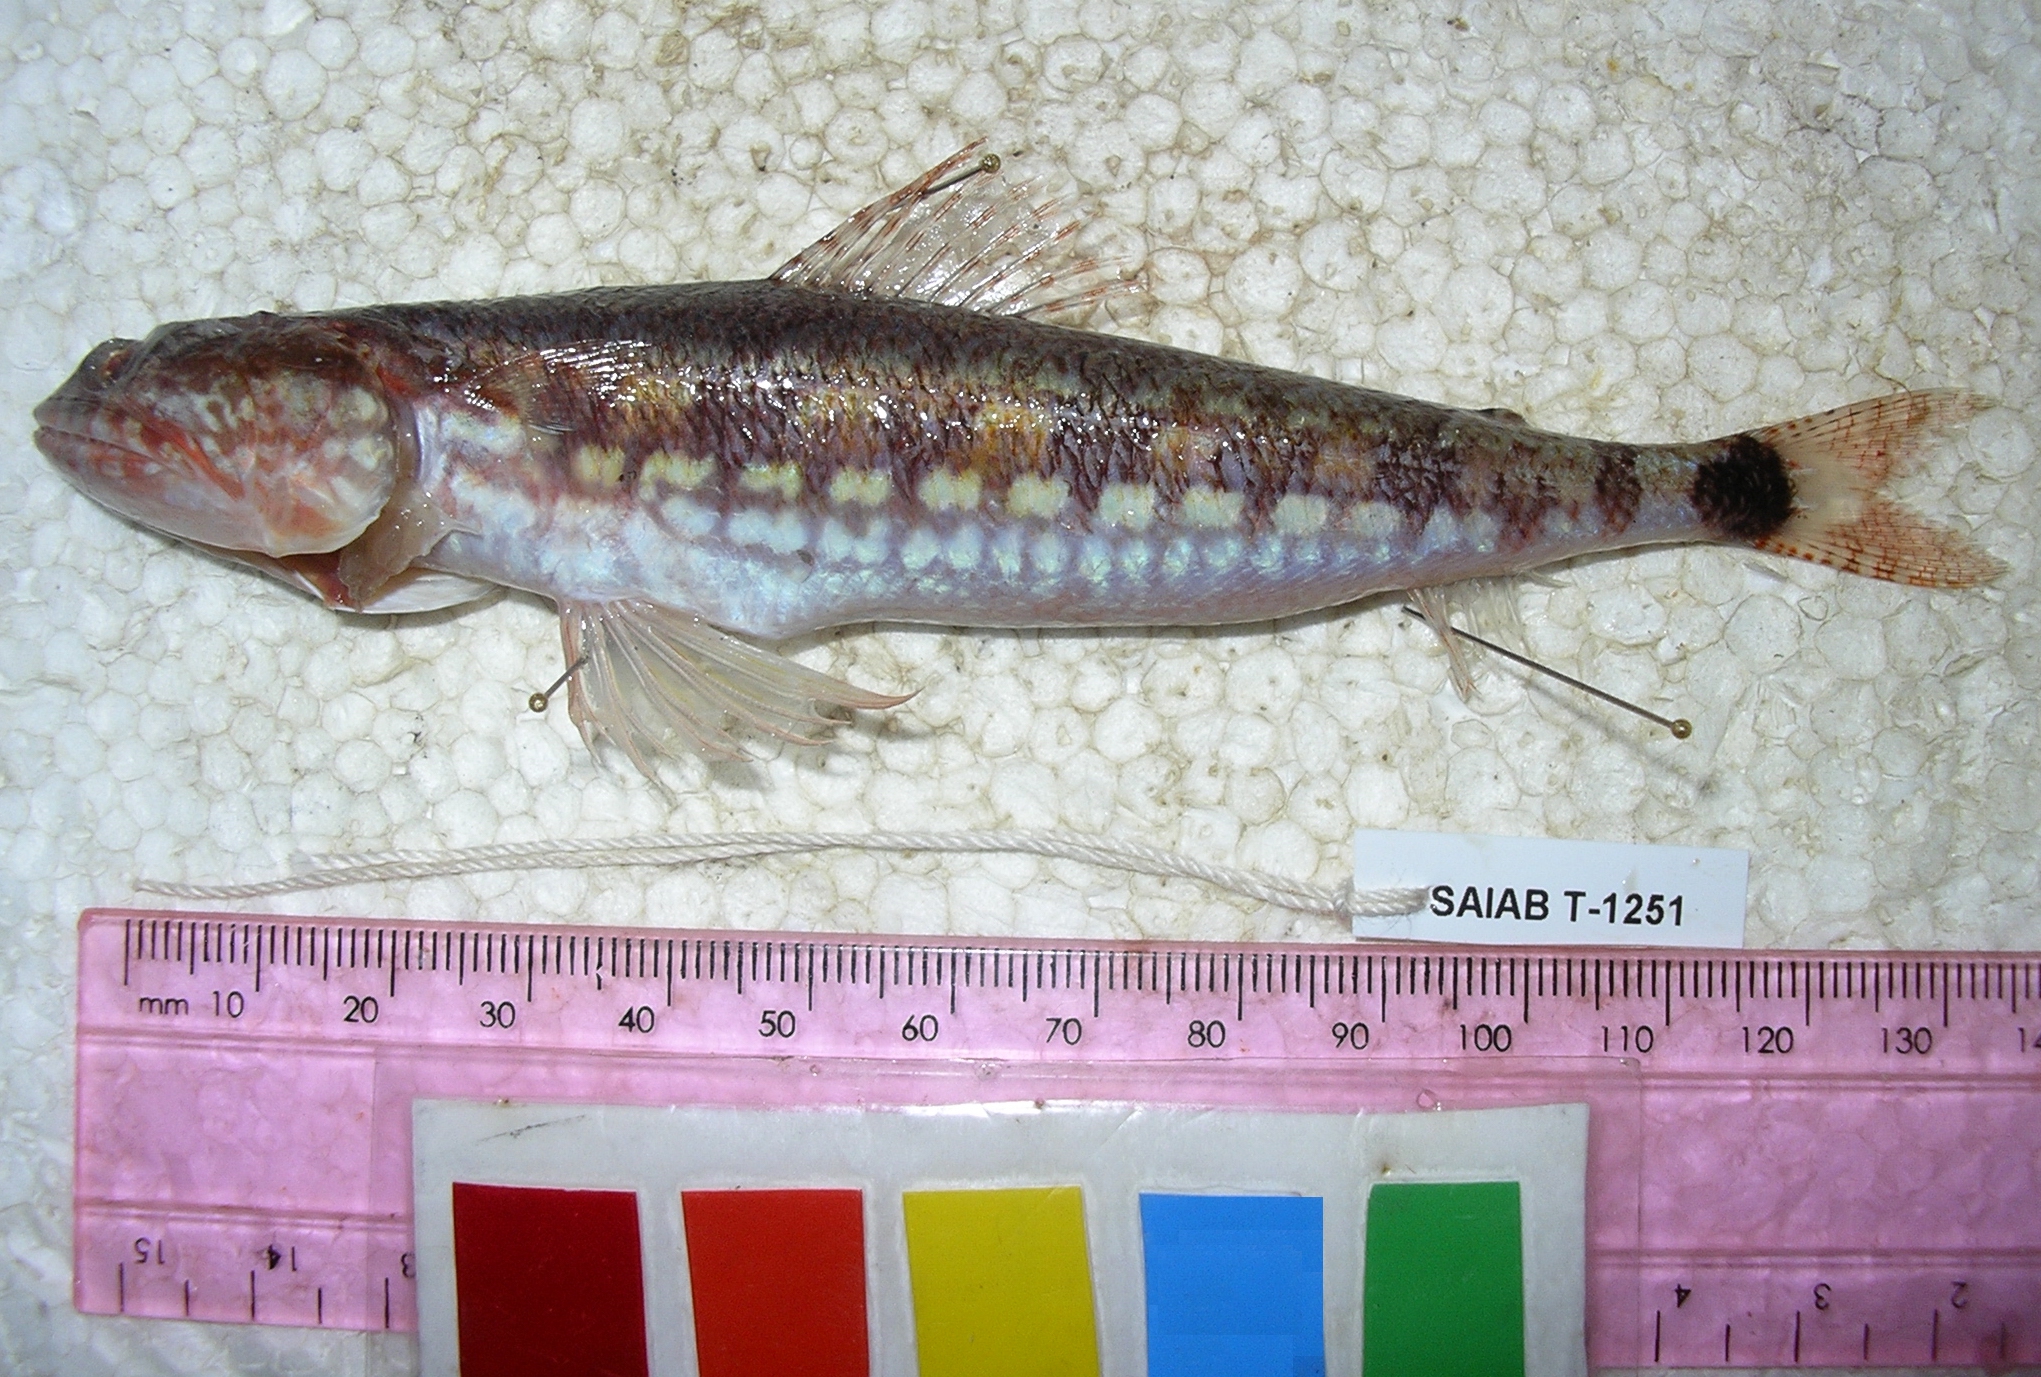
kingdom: Animalia
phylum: Chordata
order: Aulopiformes
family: Synodontidae
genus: Synodus
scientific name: Synodus jaculum
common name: Lighthouse lizardfish
